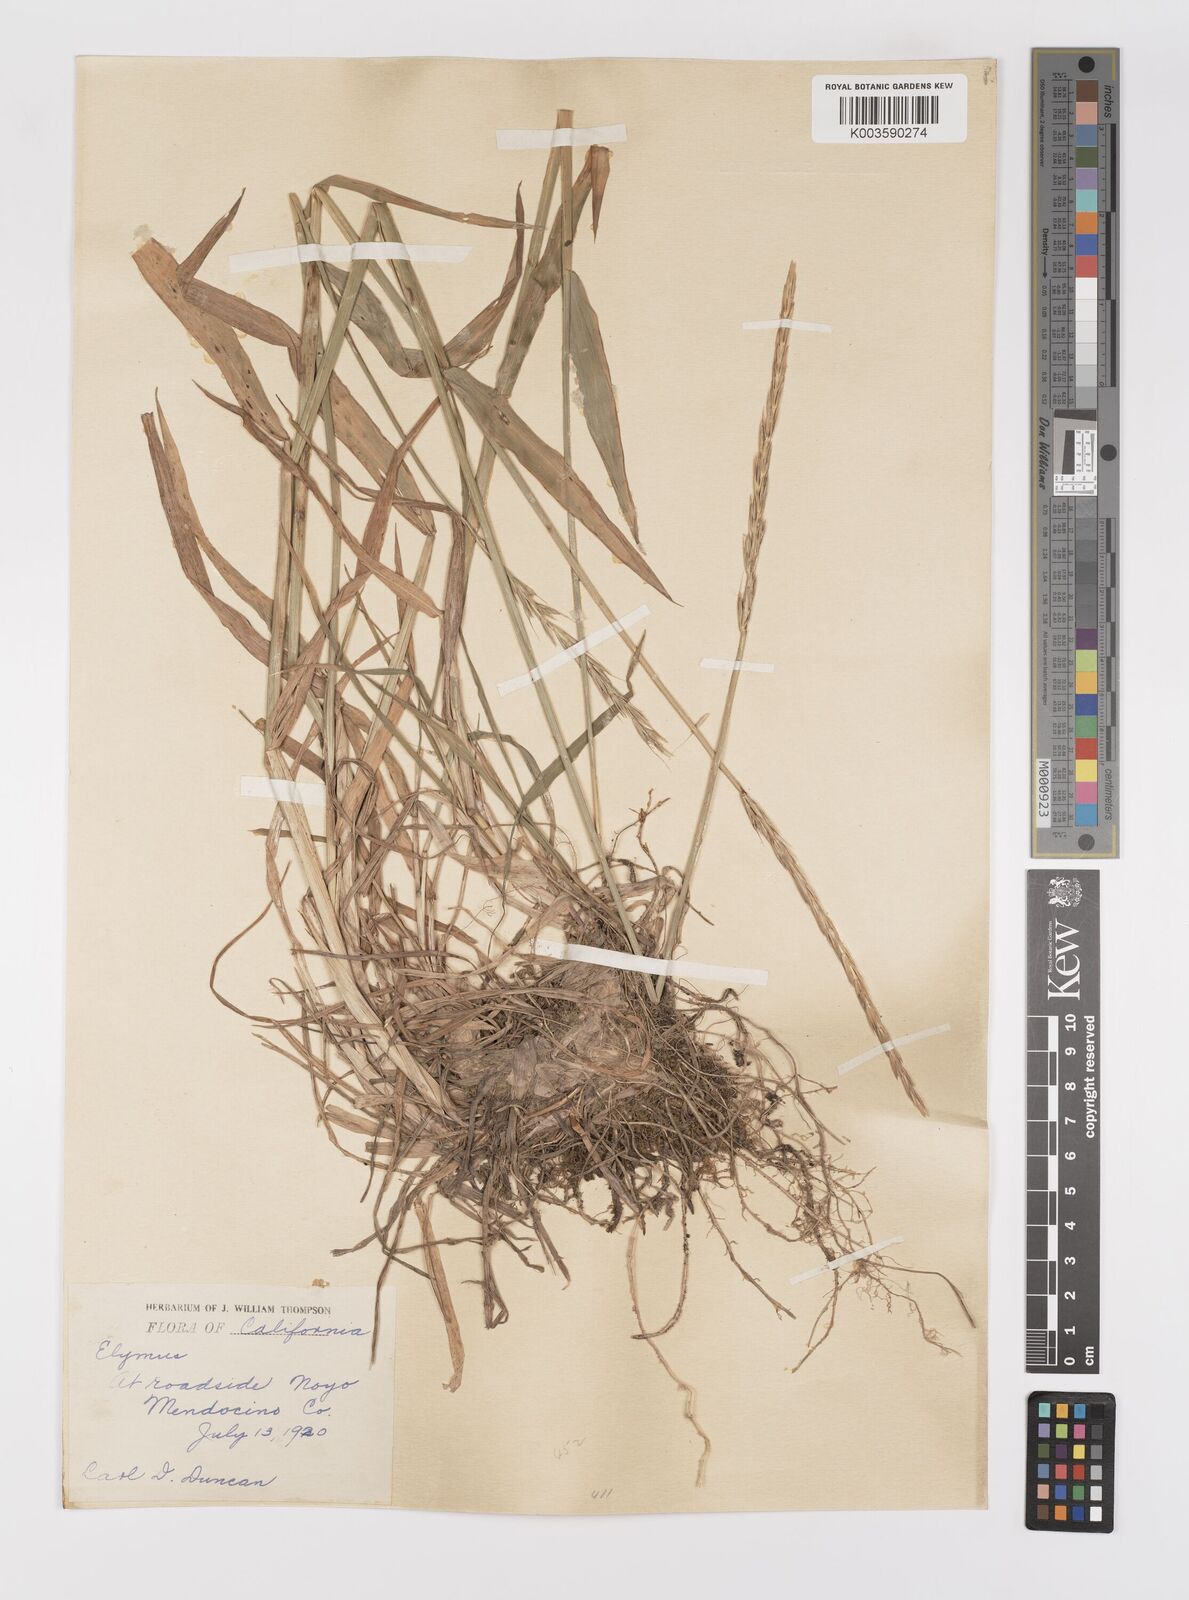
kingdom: Plantae
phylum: Tracheophyta
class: Liliopsida
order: Poales
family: Poaceae
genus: Elymus
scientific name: Elymus
